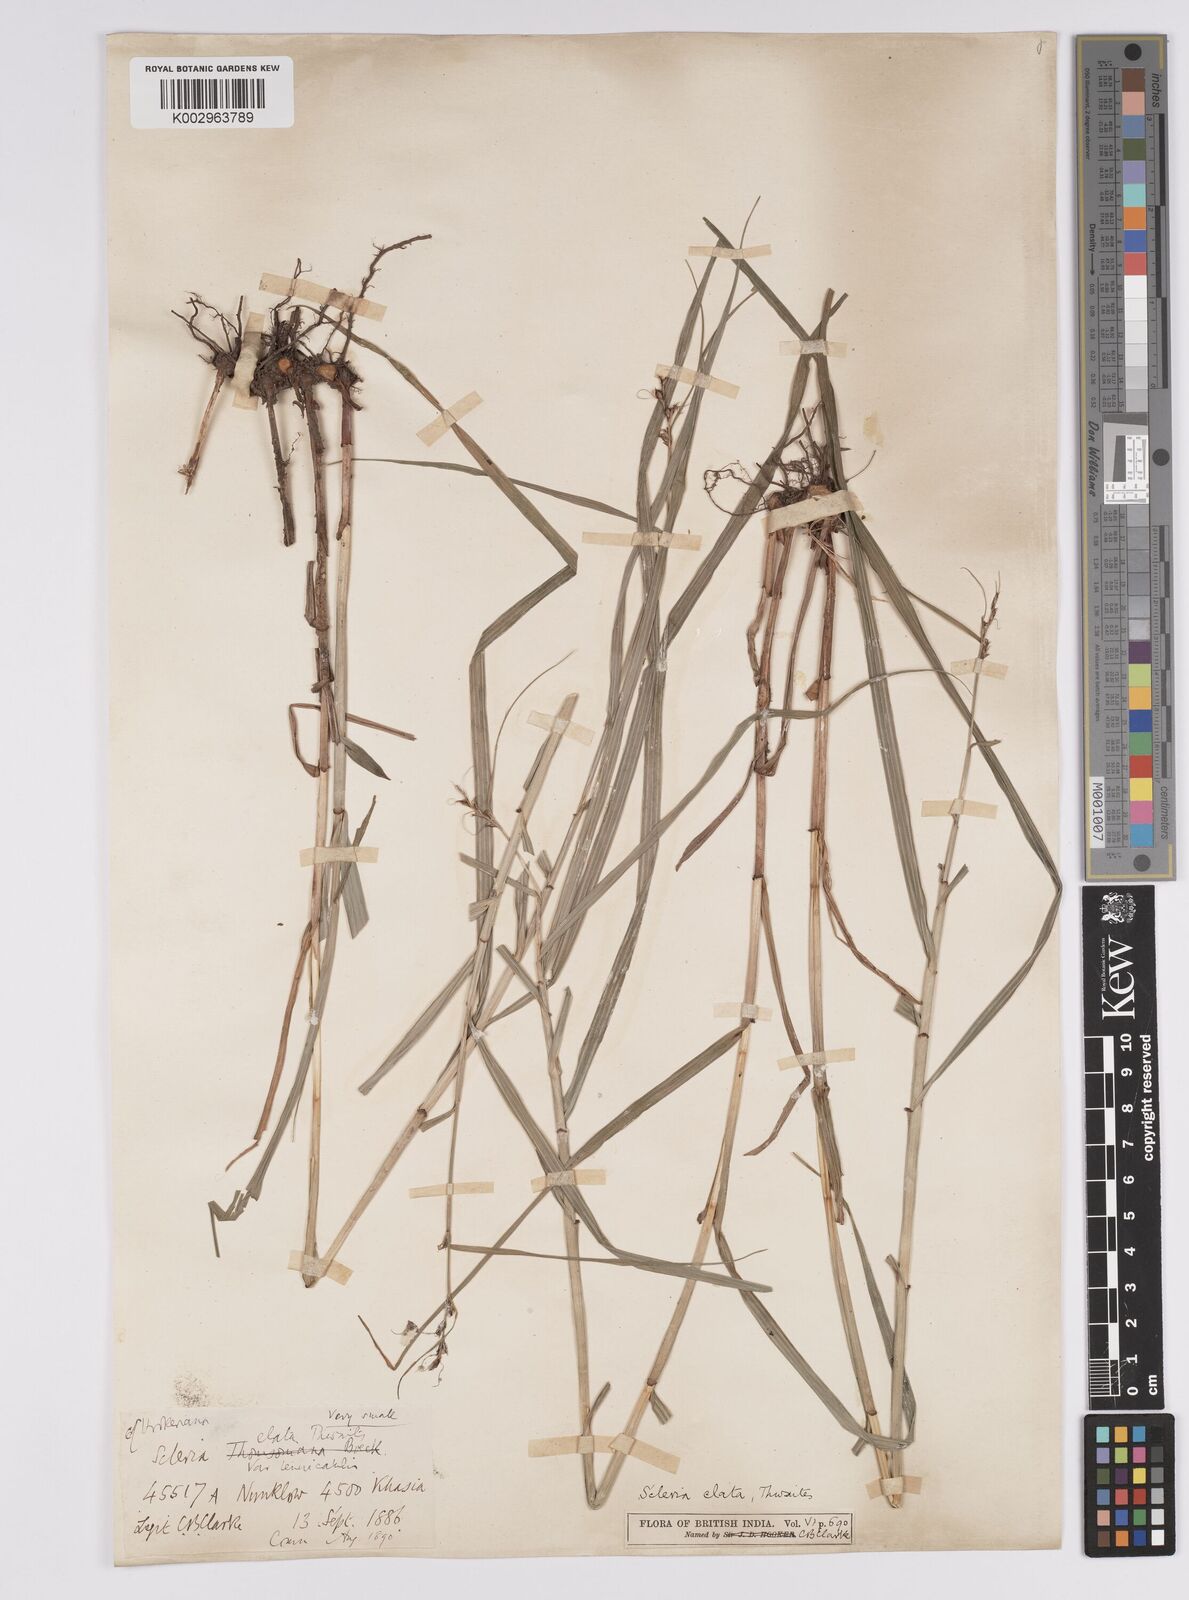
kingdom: Plantae
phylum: Tracheophyta
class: Liliopsida
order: Poales
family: Cyperaceae
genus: Scleria
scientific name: Scleria terrestris
